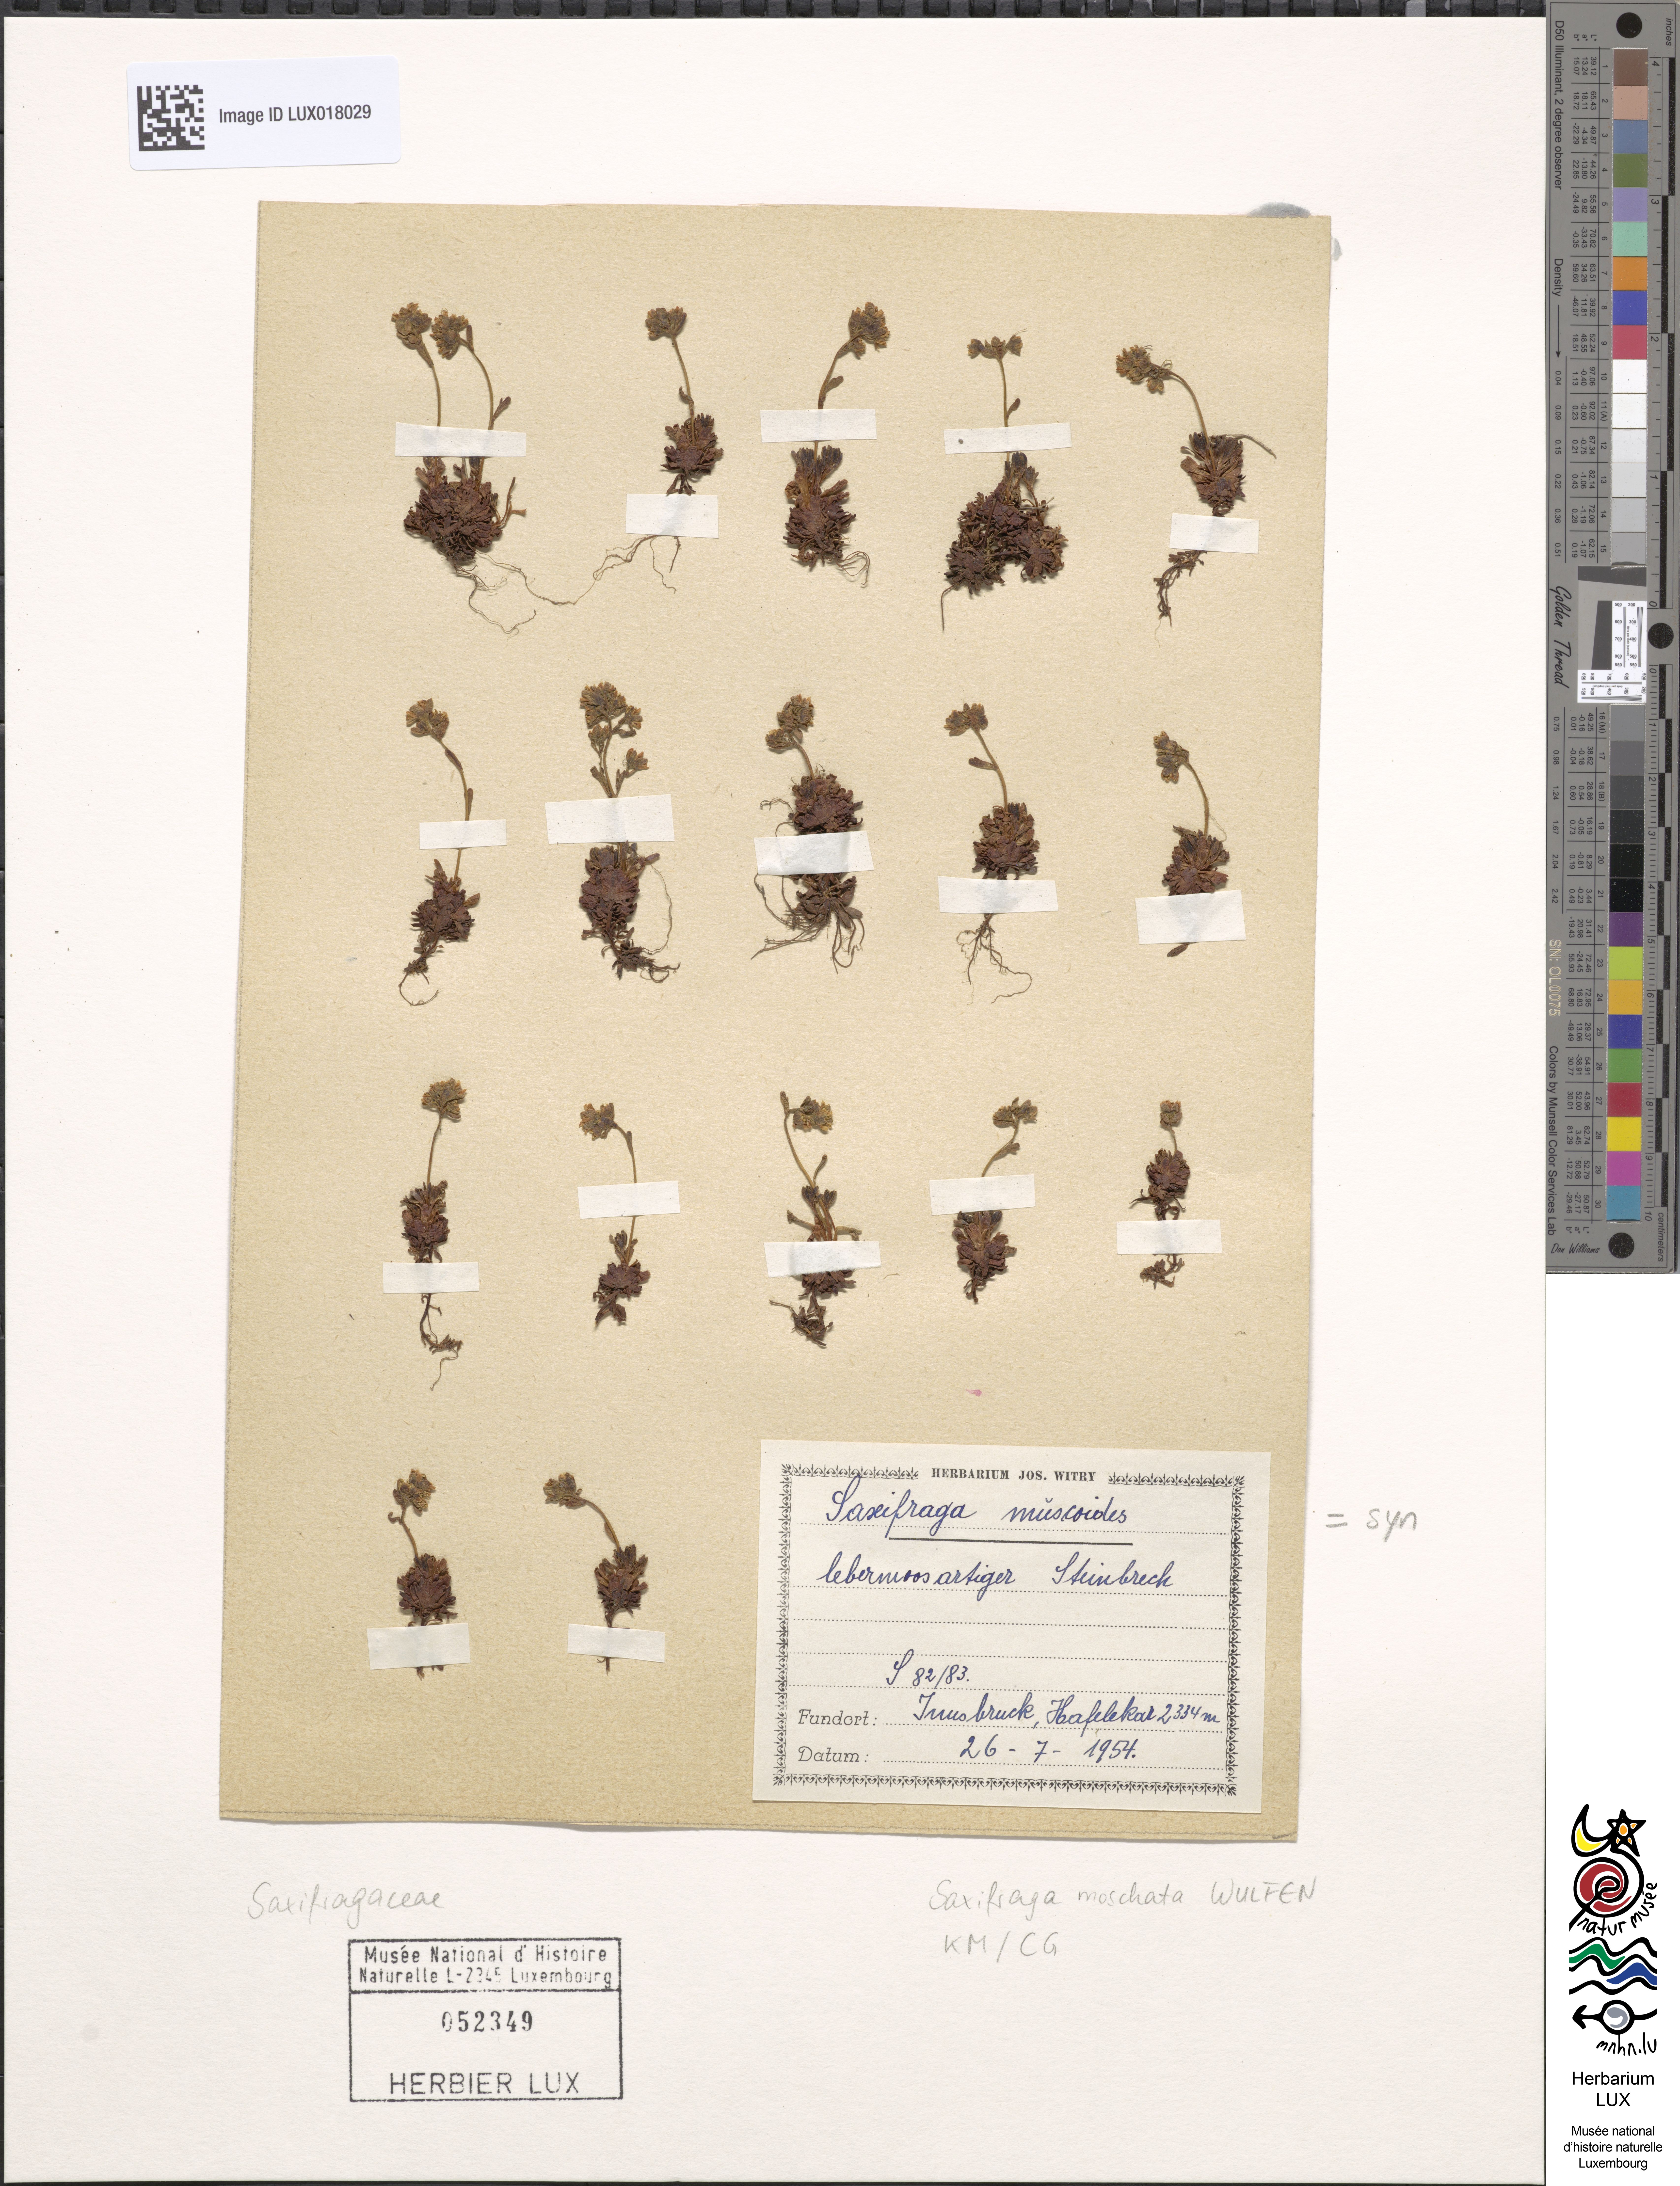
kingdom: Plantae
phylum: Tracheophyta
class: Magnoliopsida
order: Saxifragales
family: Saxifragaceae
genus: Saxifraga
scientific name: Saxifraga muscoides
